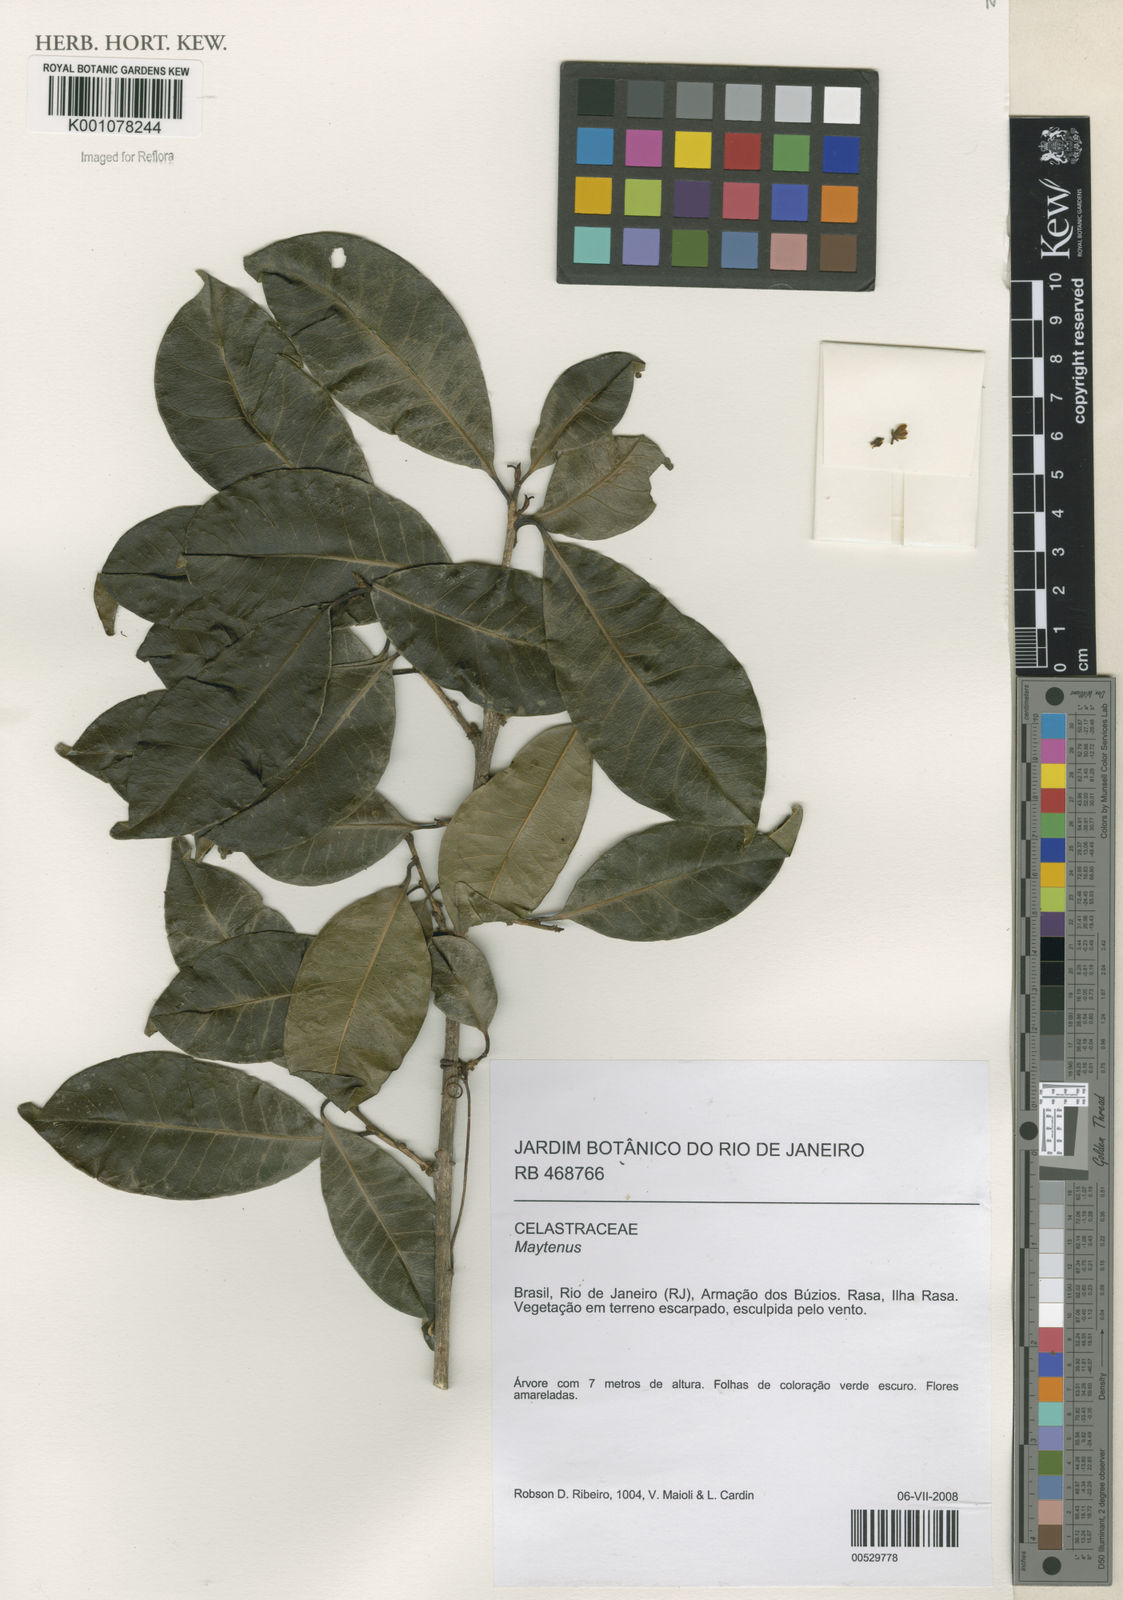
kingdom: Plantae
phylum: Tracheophyta
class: Magnoliopsida
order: Celastrales
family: Celastraceae
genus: Maytenus
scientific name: Maytenus
